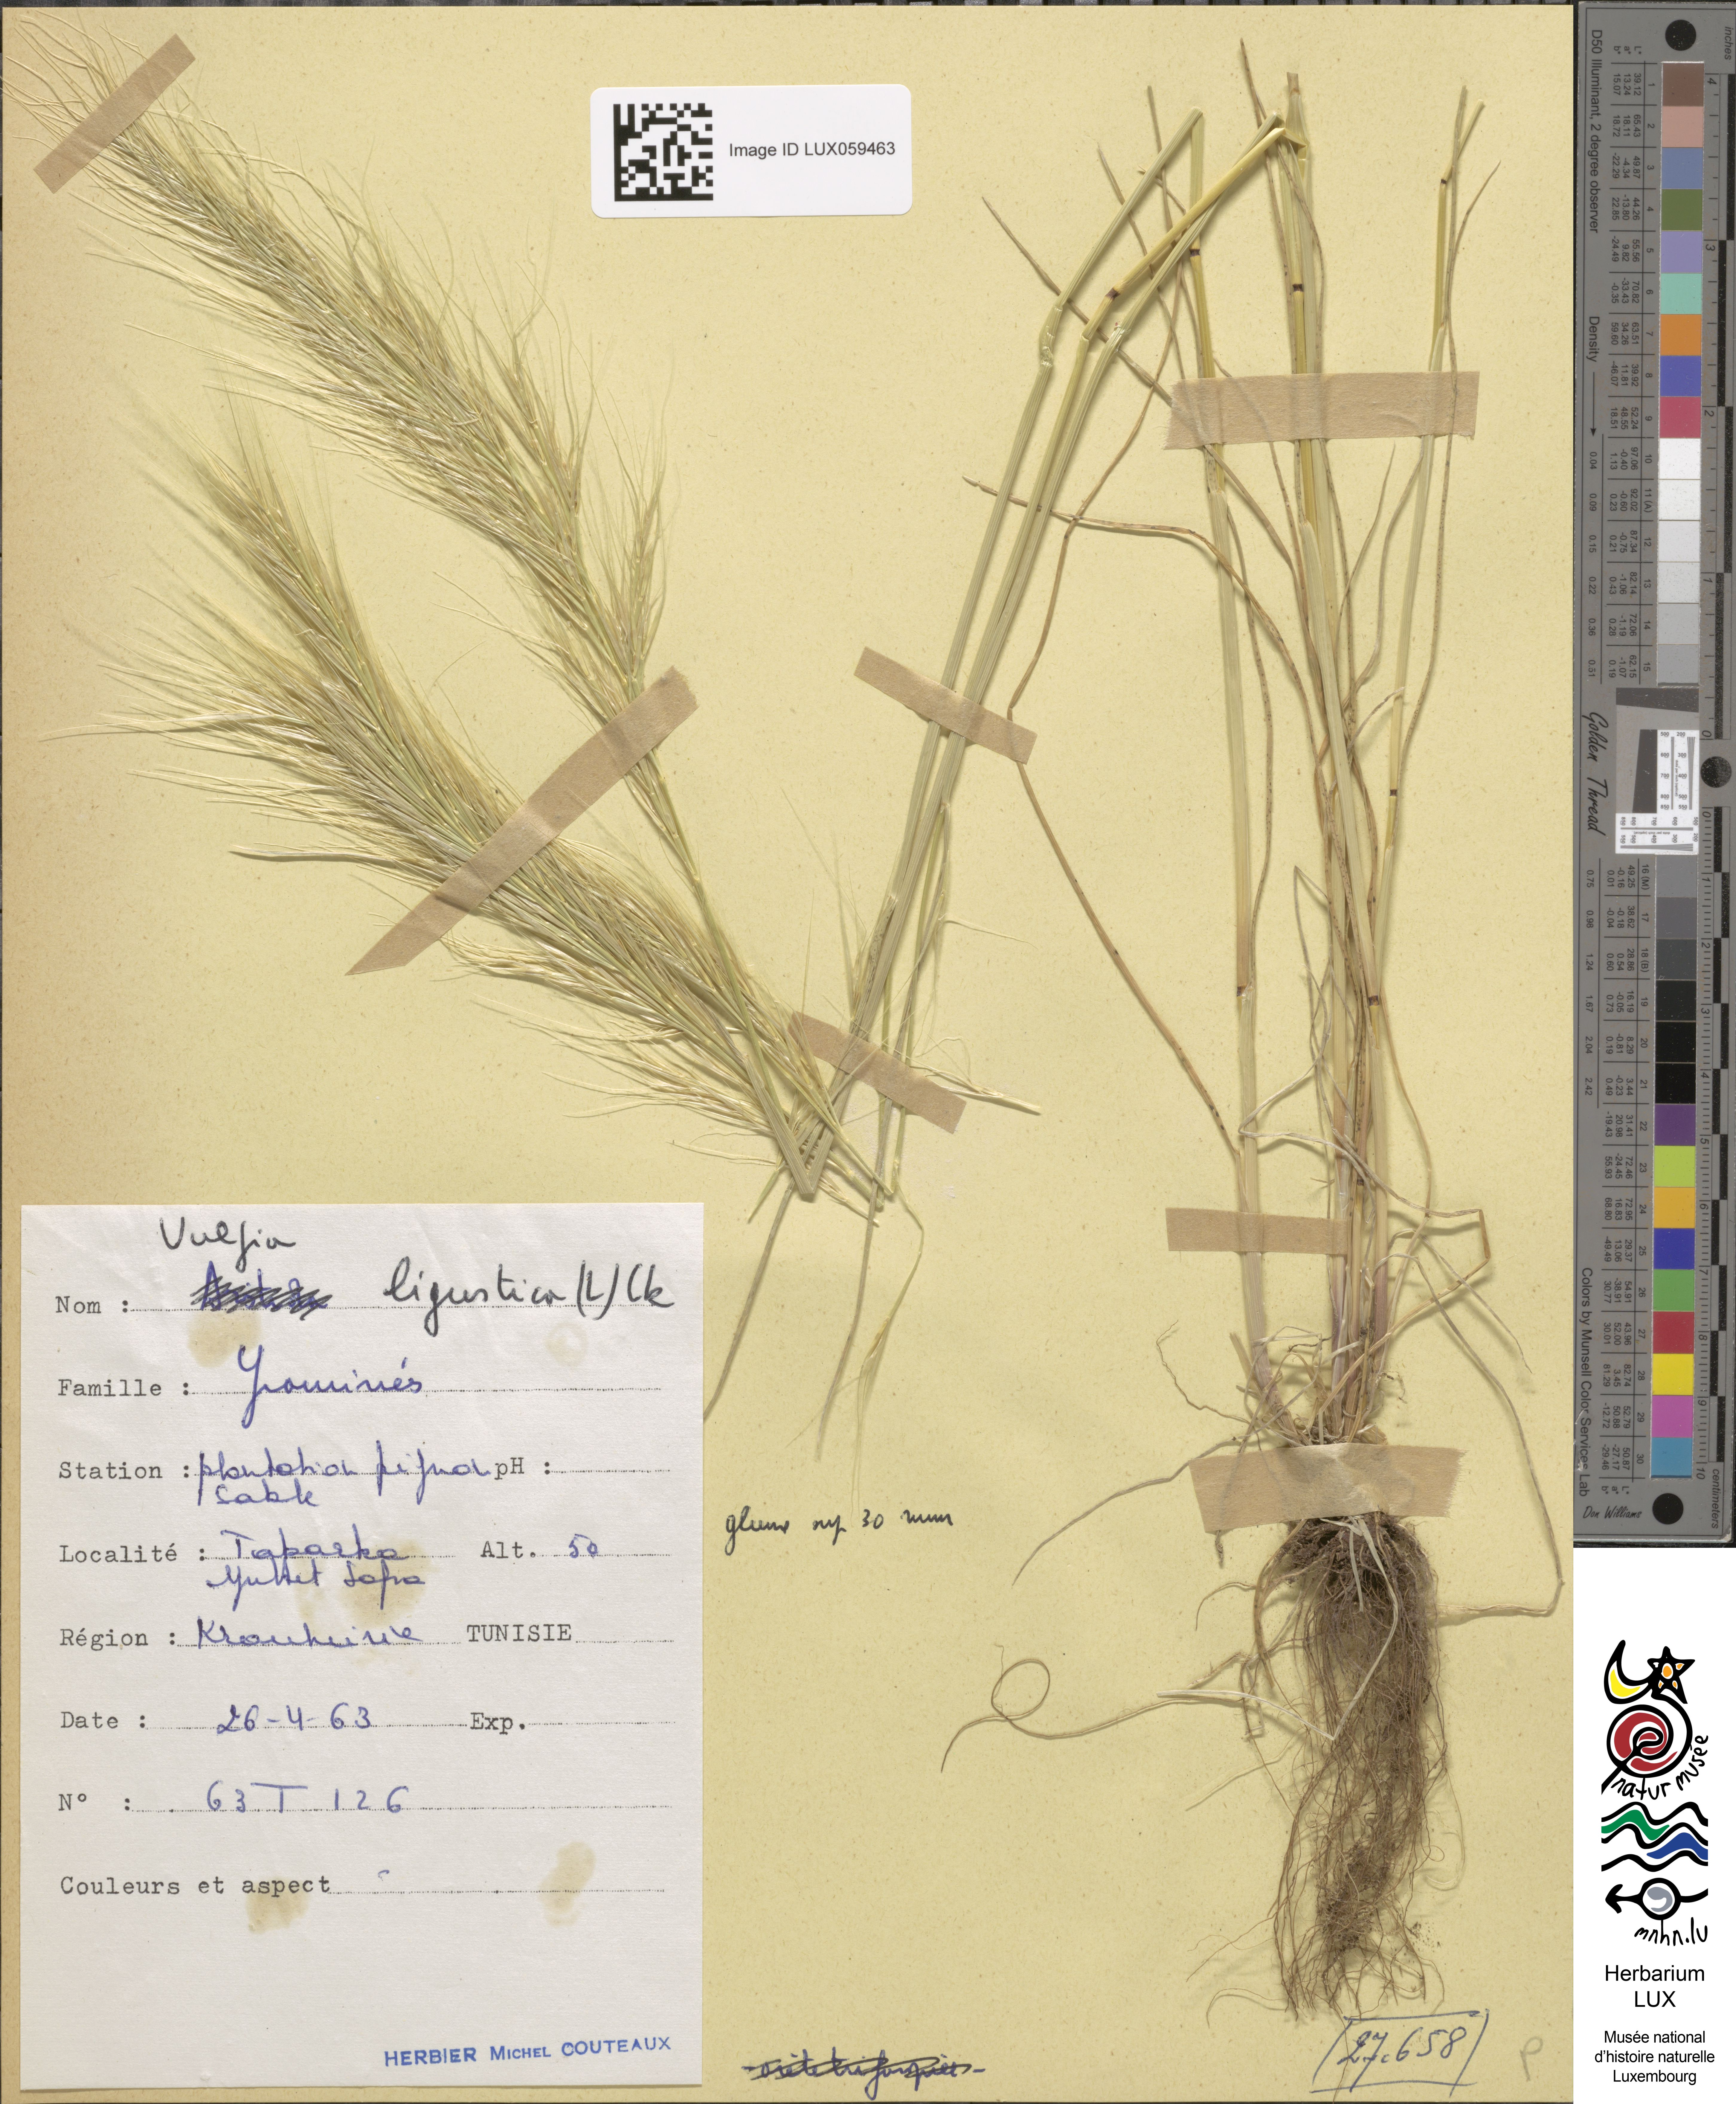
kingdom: Plantae
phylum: Tracheophyta
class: Liliopsida
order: Poales
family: Poaceae
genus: Festuca
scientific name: Festuca ligustica
